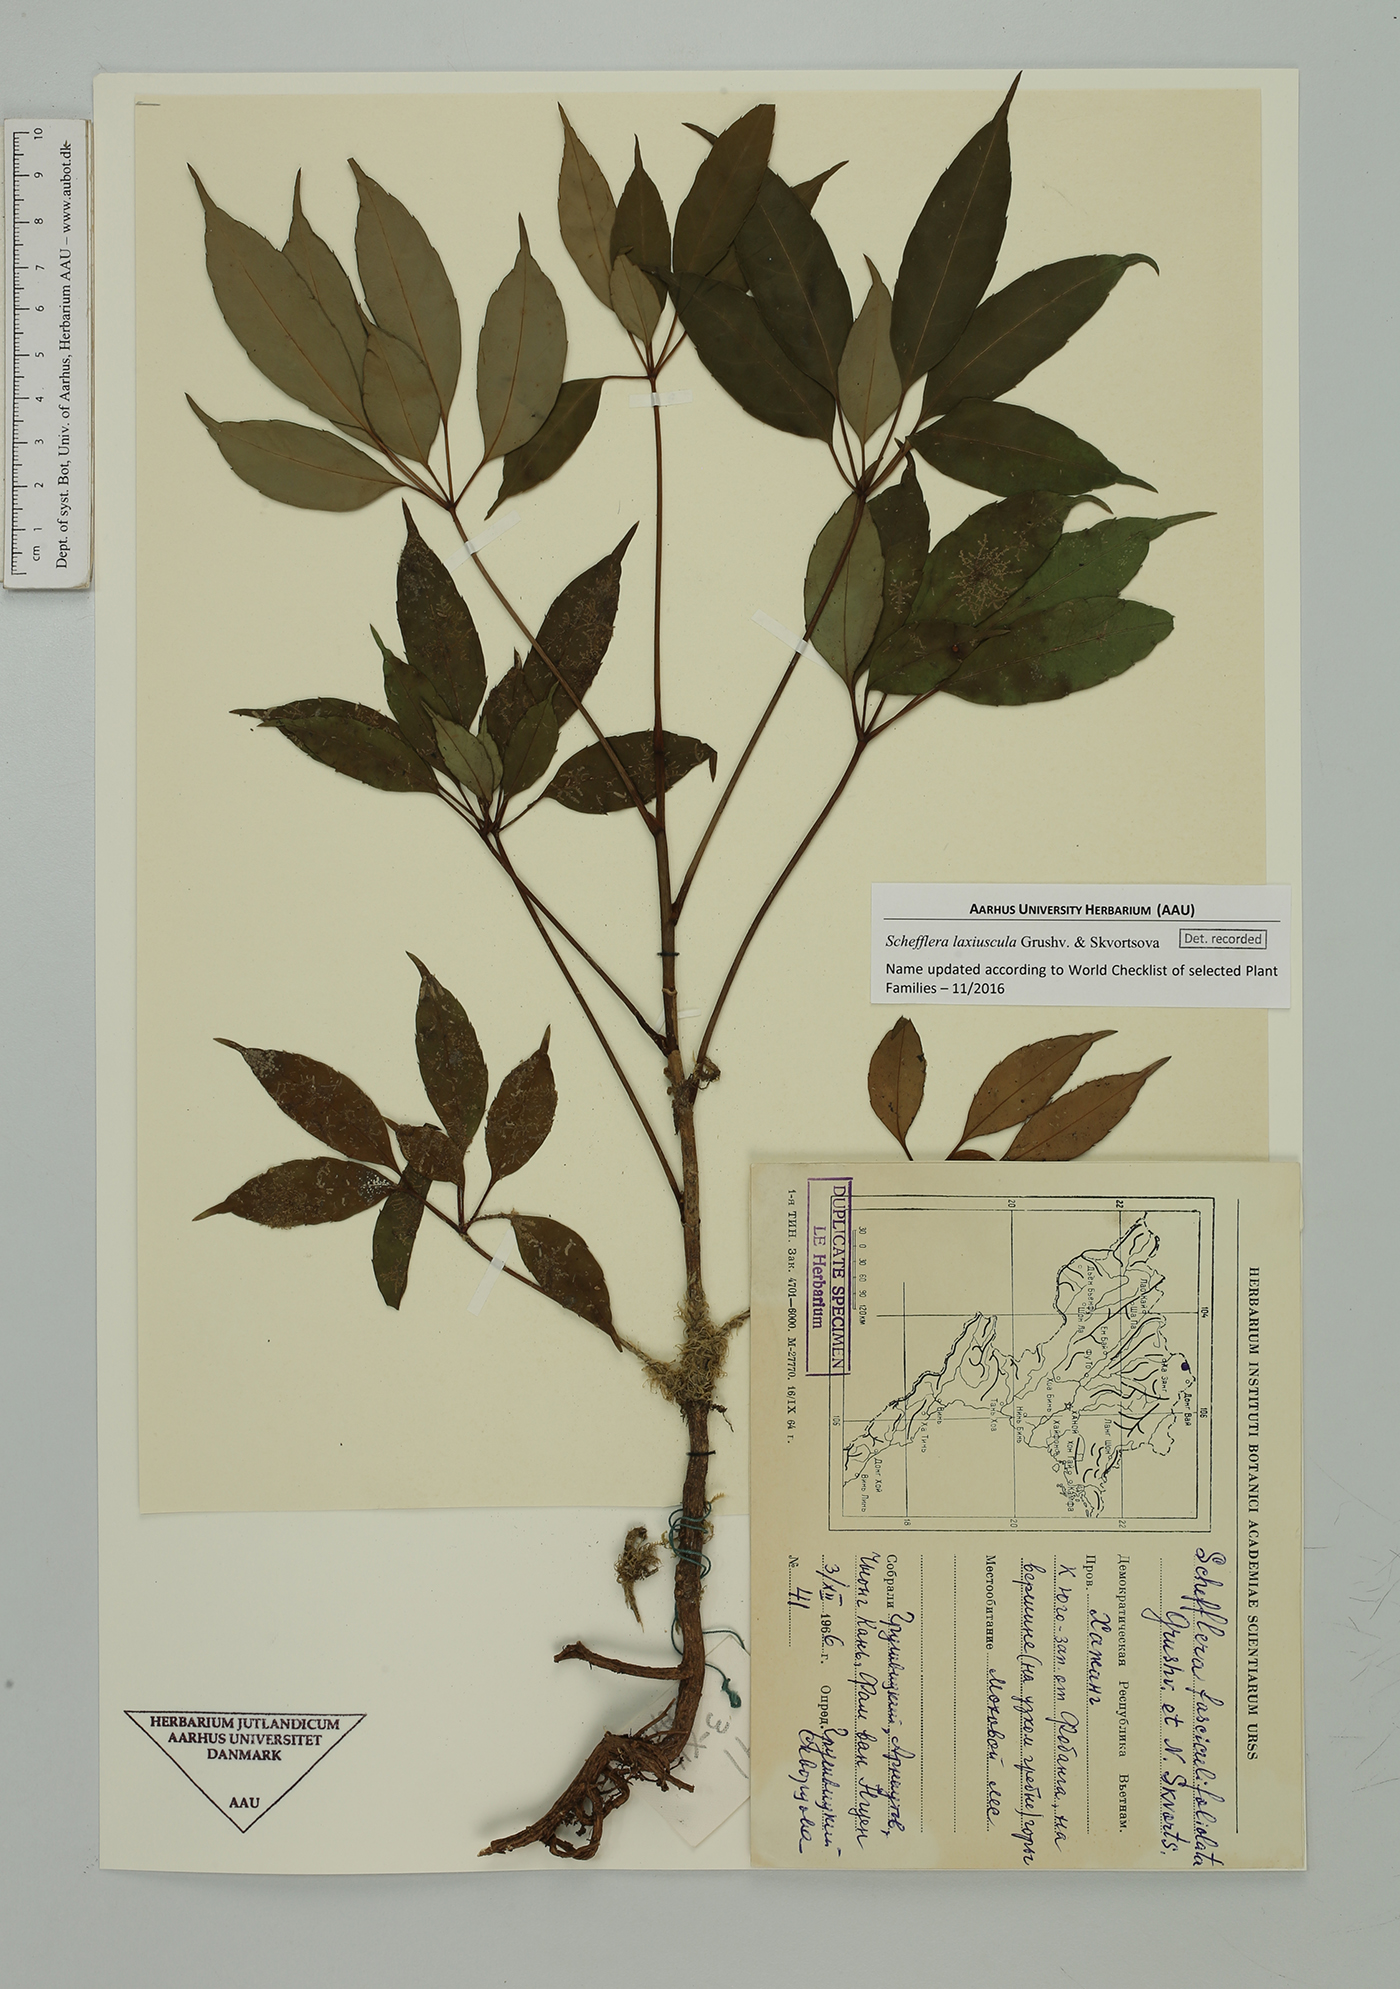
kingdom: Plantae
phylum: Tracheophyta
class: Magnoliopsida
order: Apiales
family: Araliaceae
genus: Heptapleurum
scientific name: Heptapleurum laxiusculum
